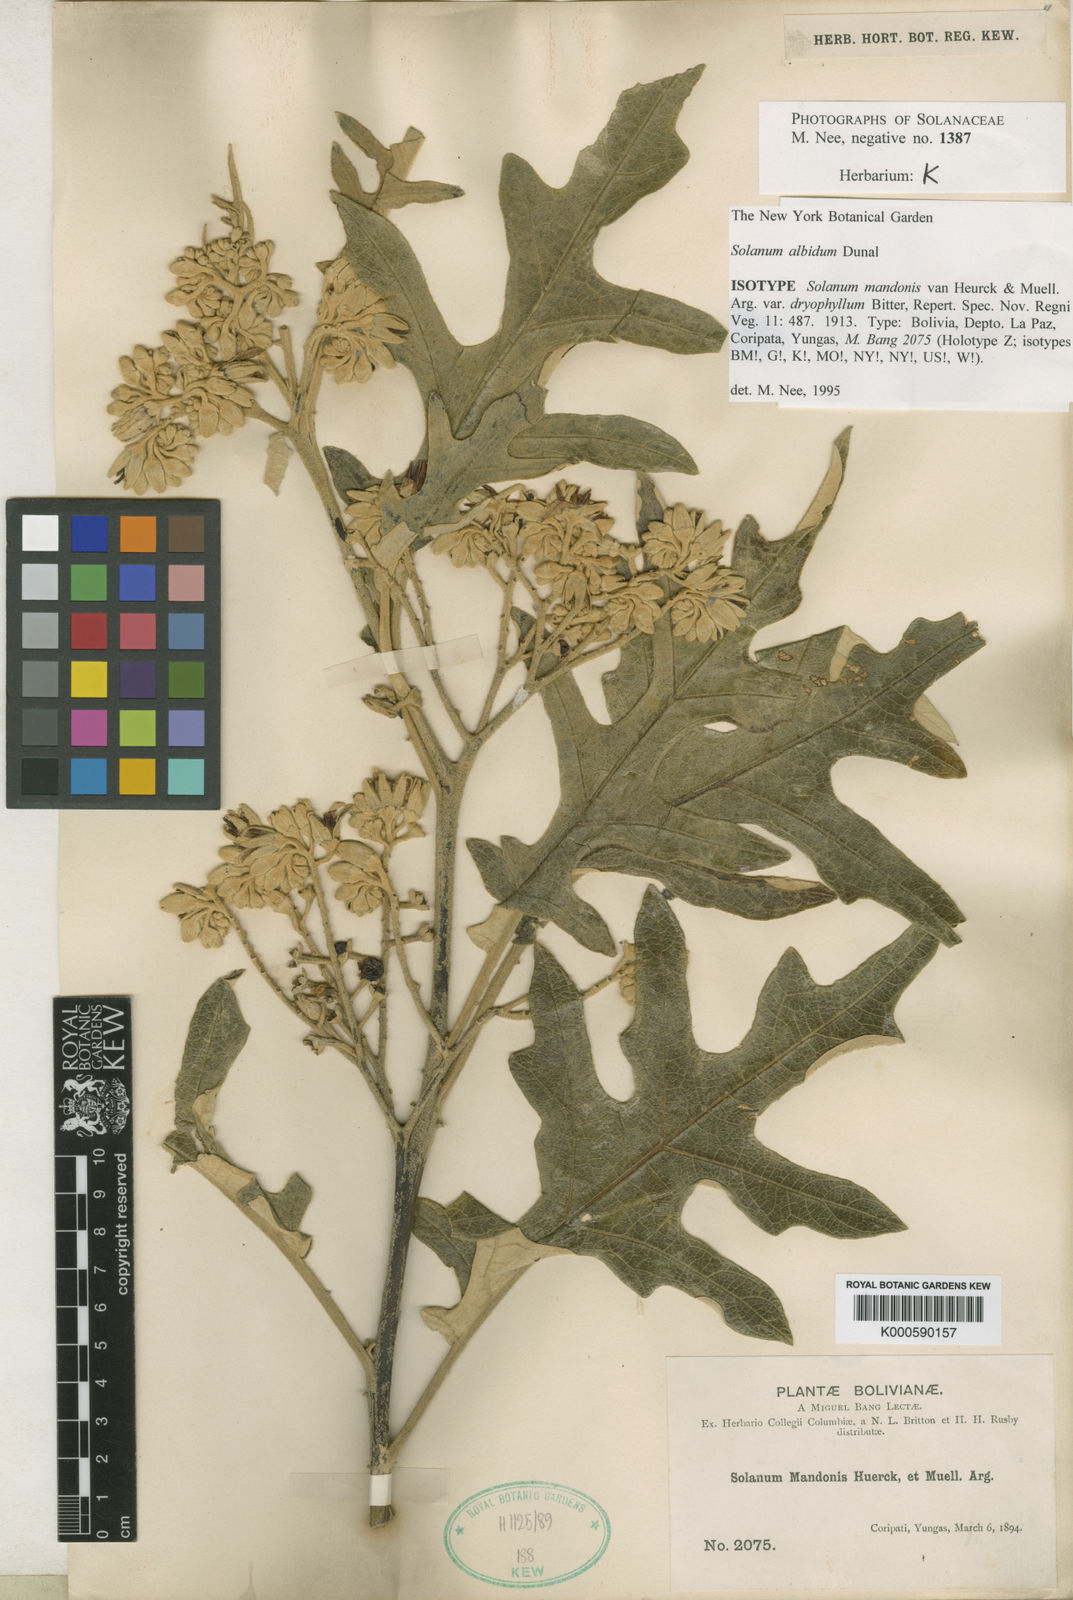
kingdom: Plantae
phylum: Tracheophyta
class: Magnoliopsida
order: Solanales
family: Solanaceae
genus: Solanum
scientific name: Solanum albidum
